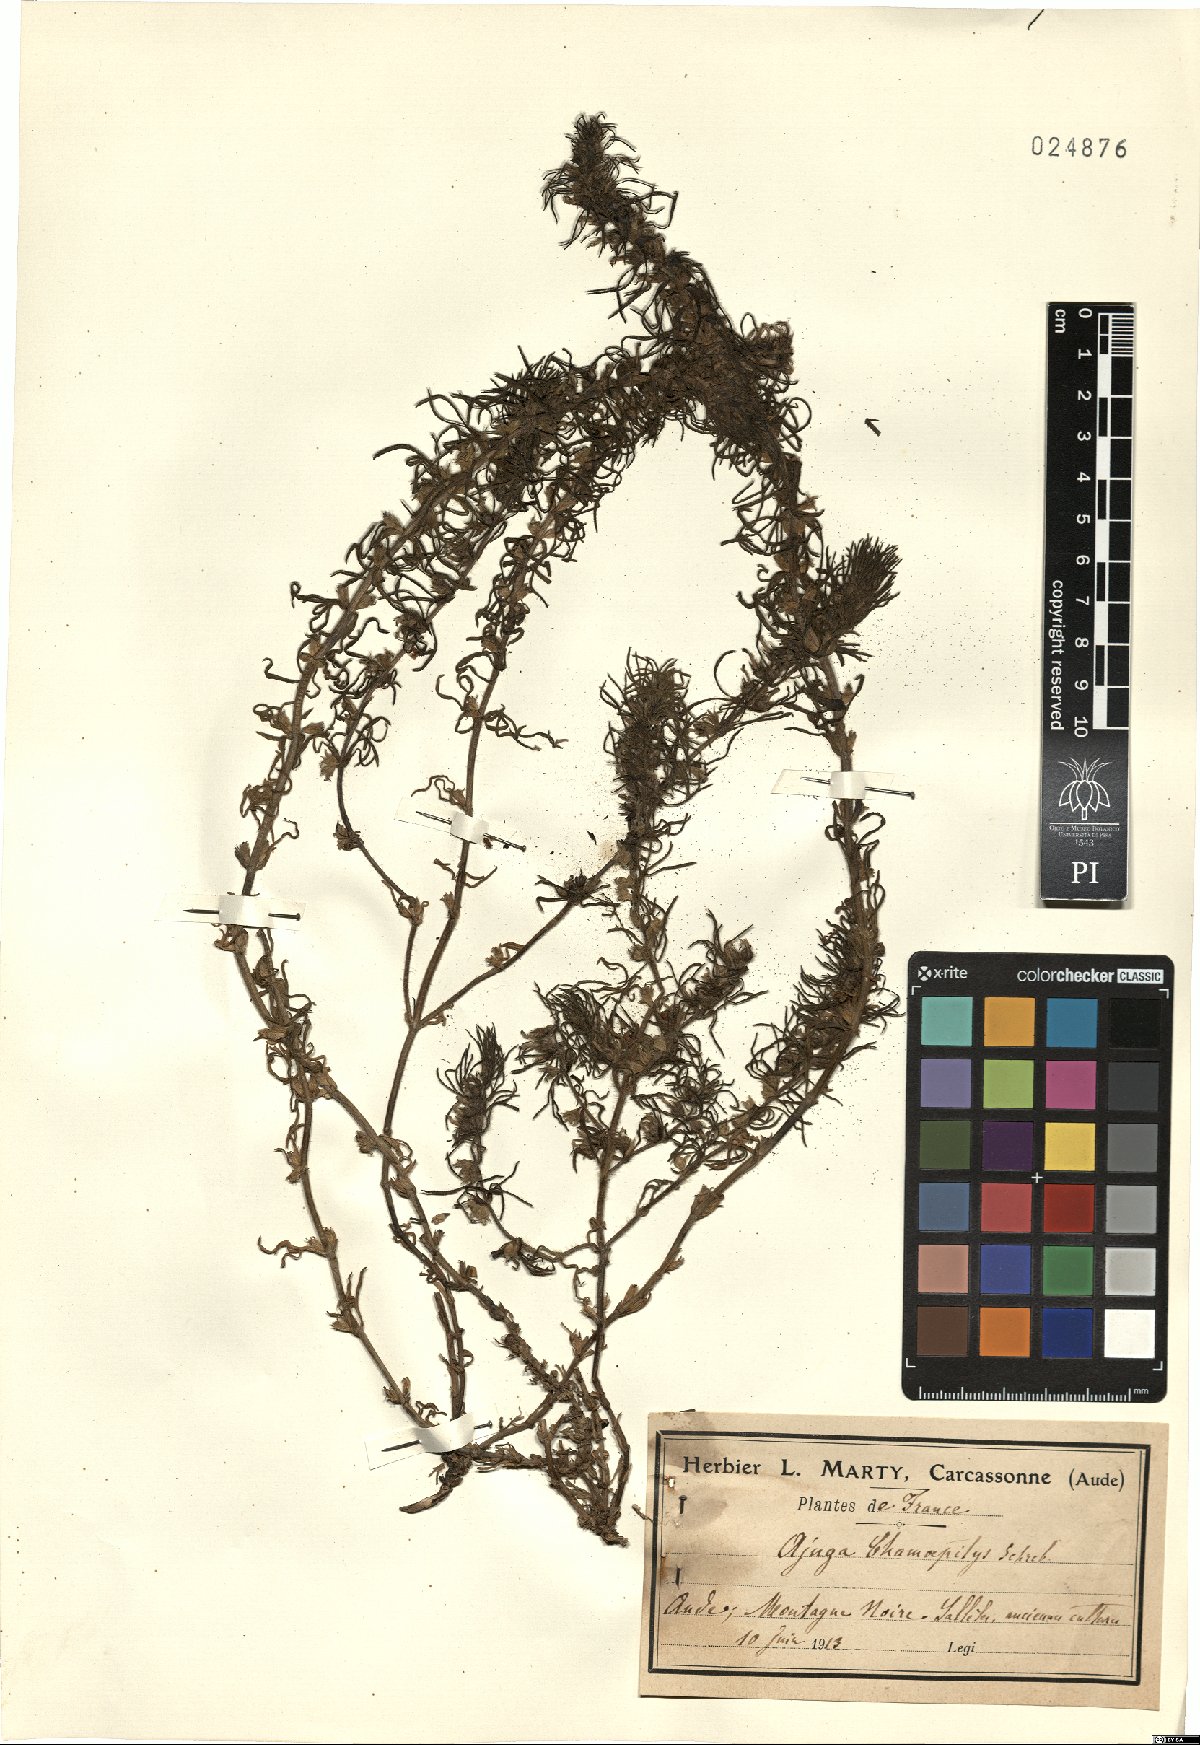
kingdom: Plantae
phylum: Tracheophyta
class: Magnoliopsida
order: Lamiales
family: Lamiaceae
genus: Ajuga
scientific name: Ajuga chamaepitys
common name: Ground-pine
